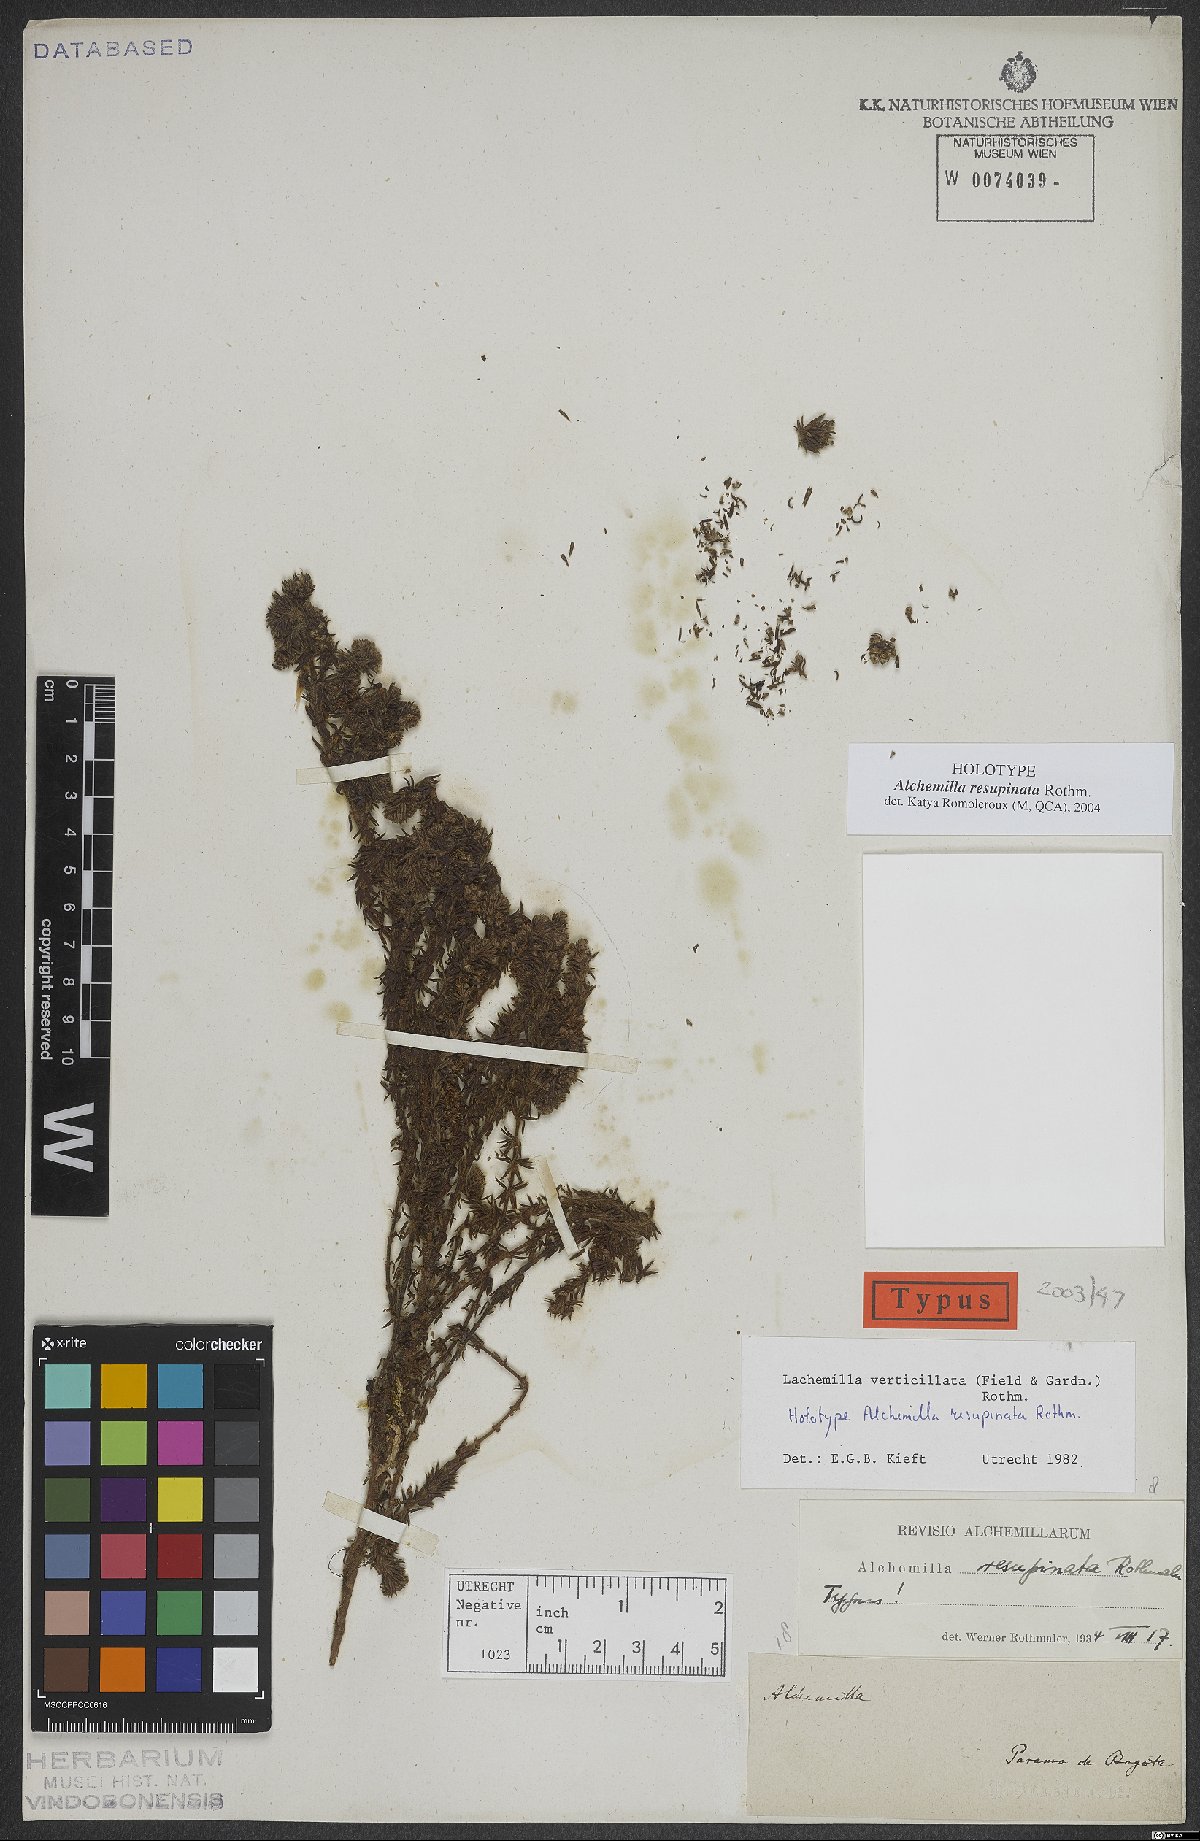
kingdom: Plantae
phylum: Tracheophyta
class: Magnoliopsida
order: Rosales
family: Rosaceae
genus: Lachemilla
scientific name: Lachemilla verticillata
